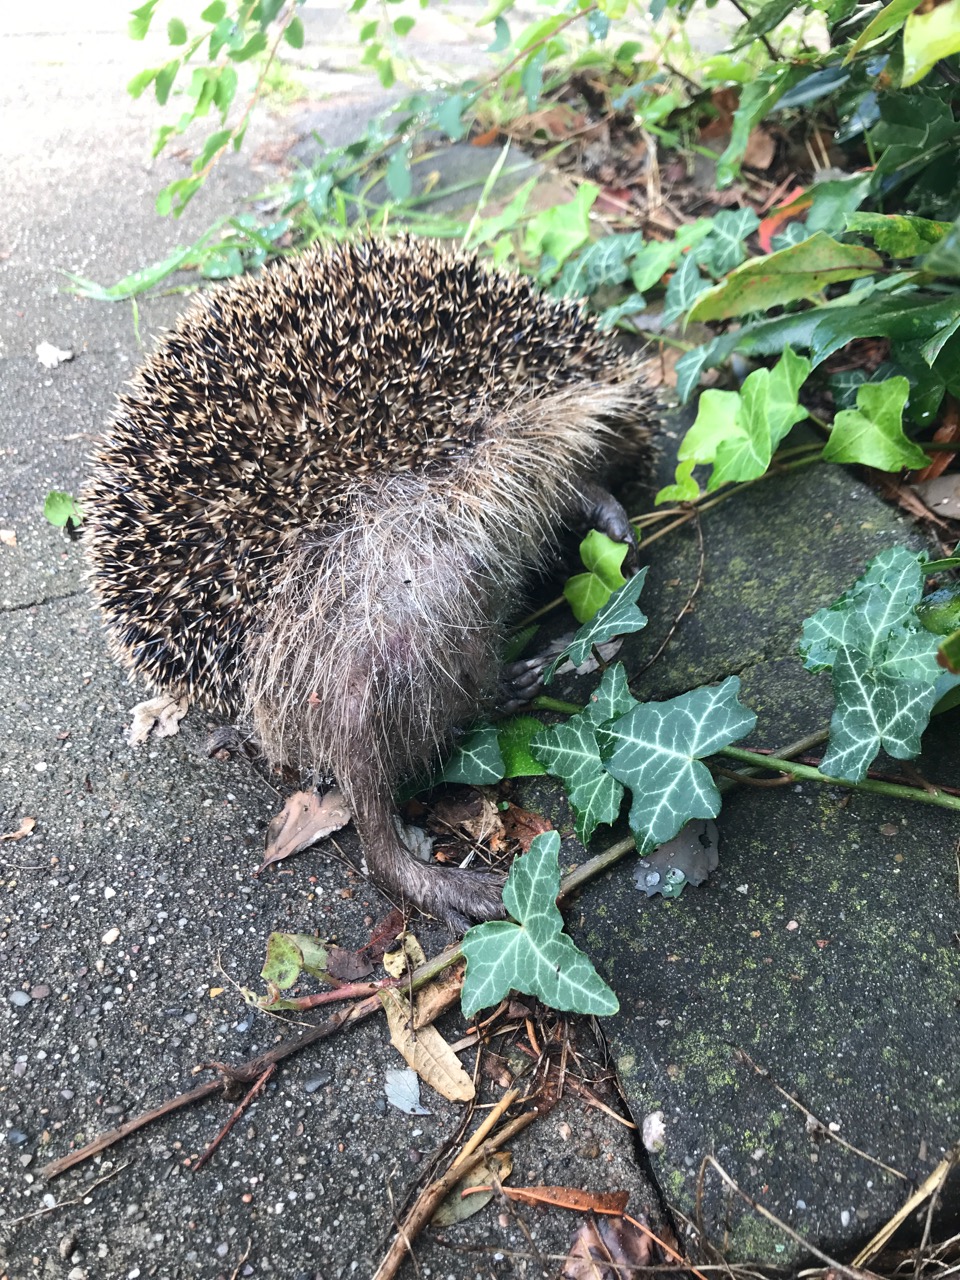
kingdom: Animalia
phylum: Chordata
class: Mammalia
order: Erinaceomorpha
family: Erinaceidae
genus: Erinaceus
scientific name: Erinaceus
